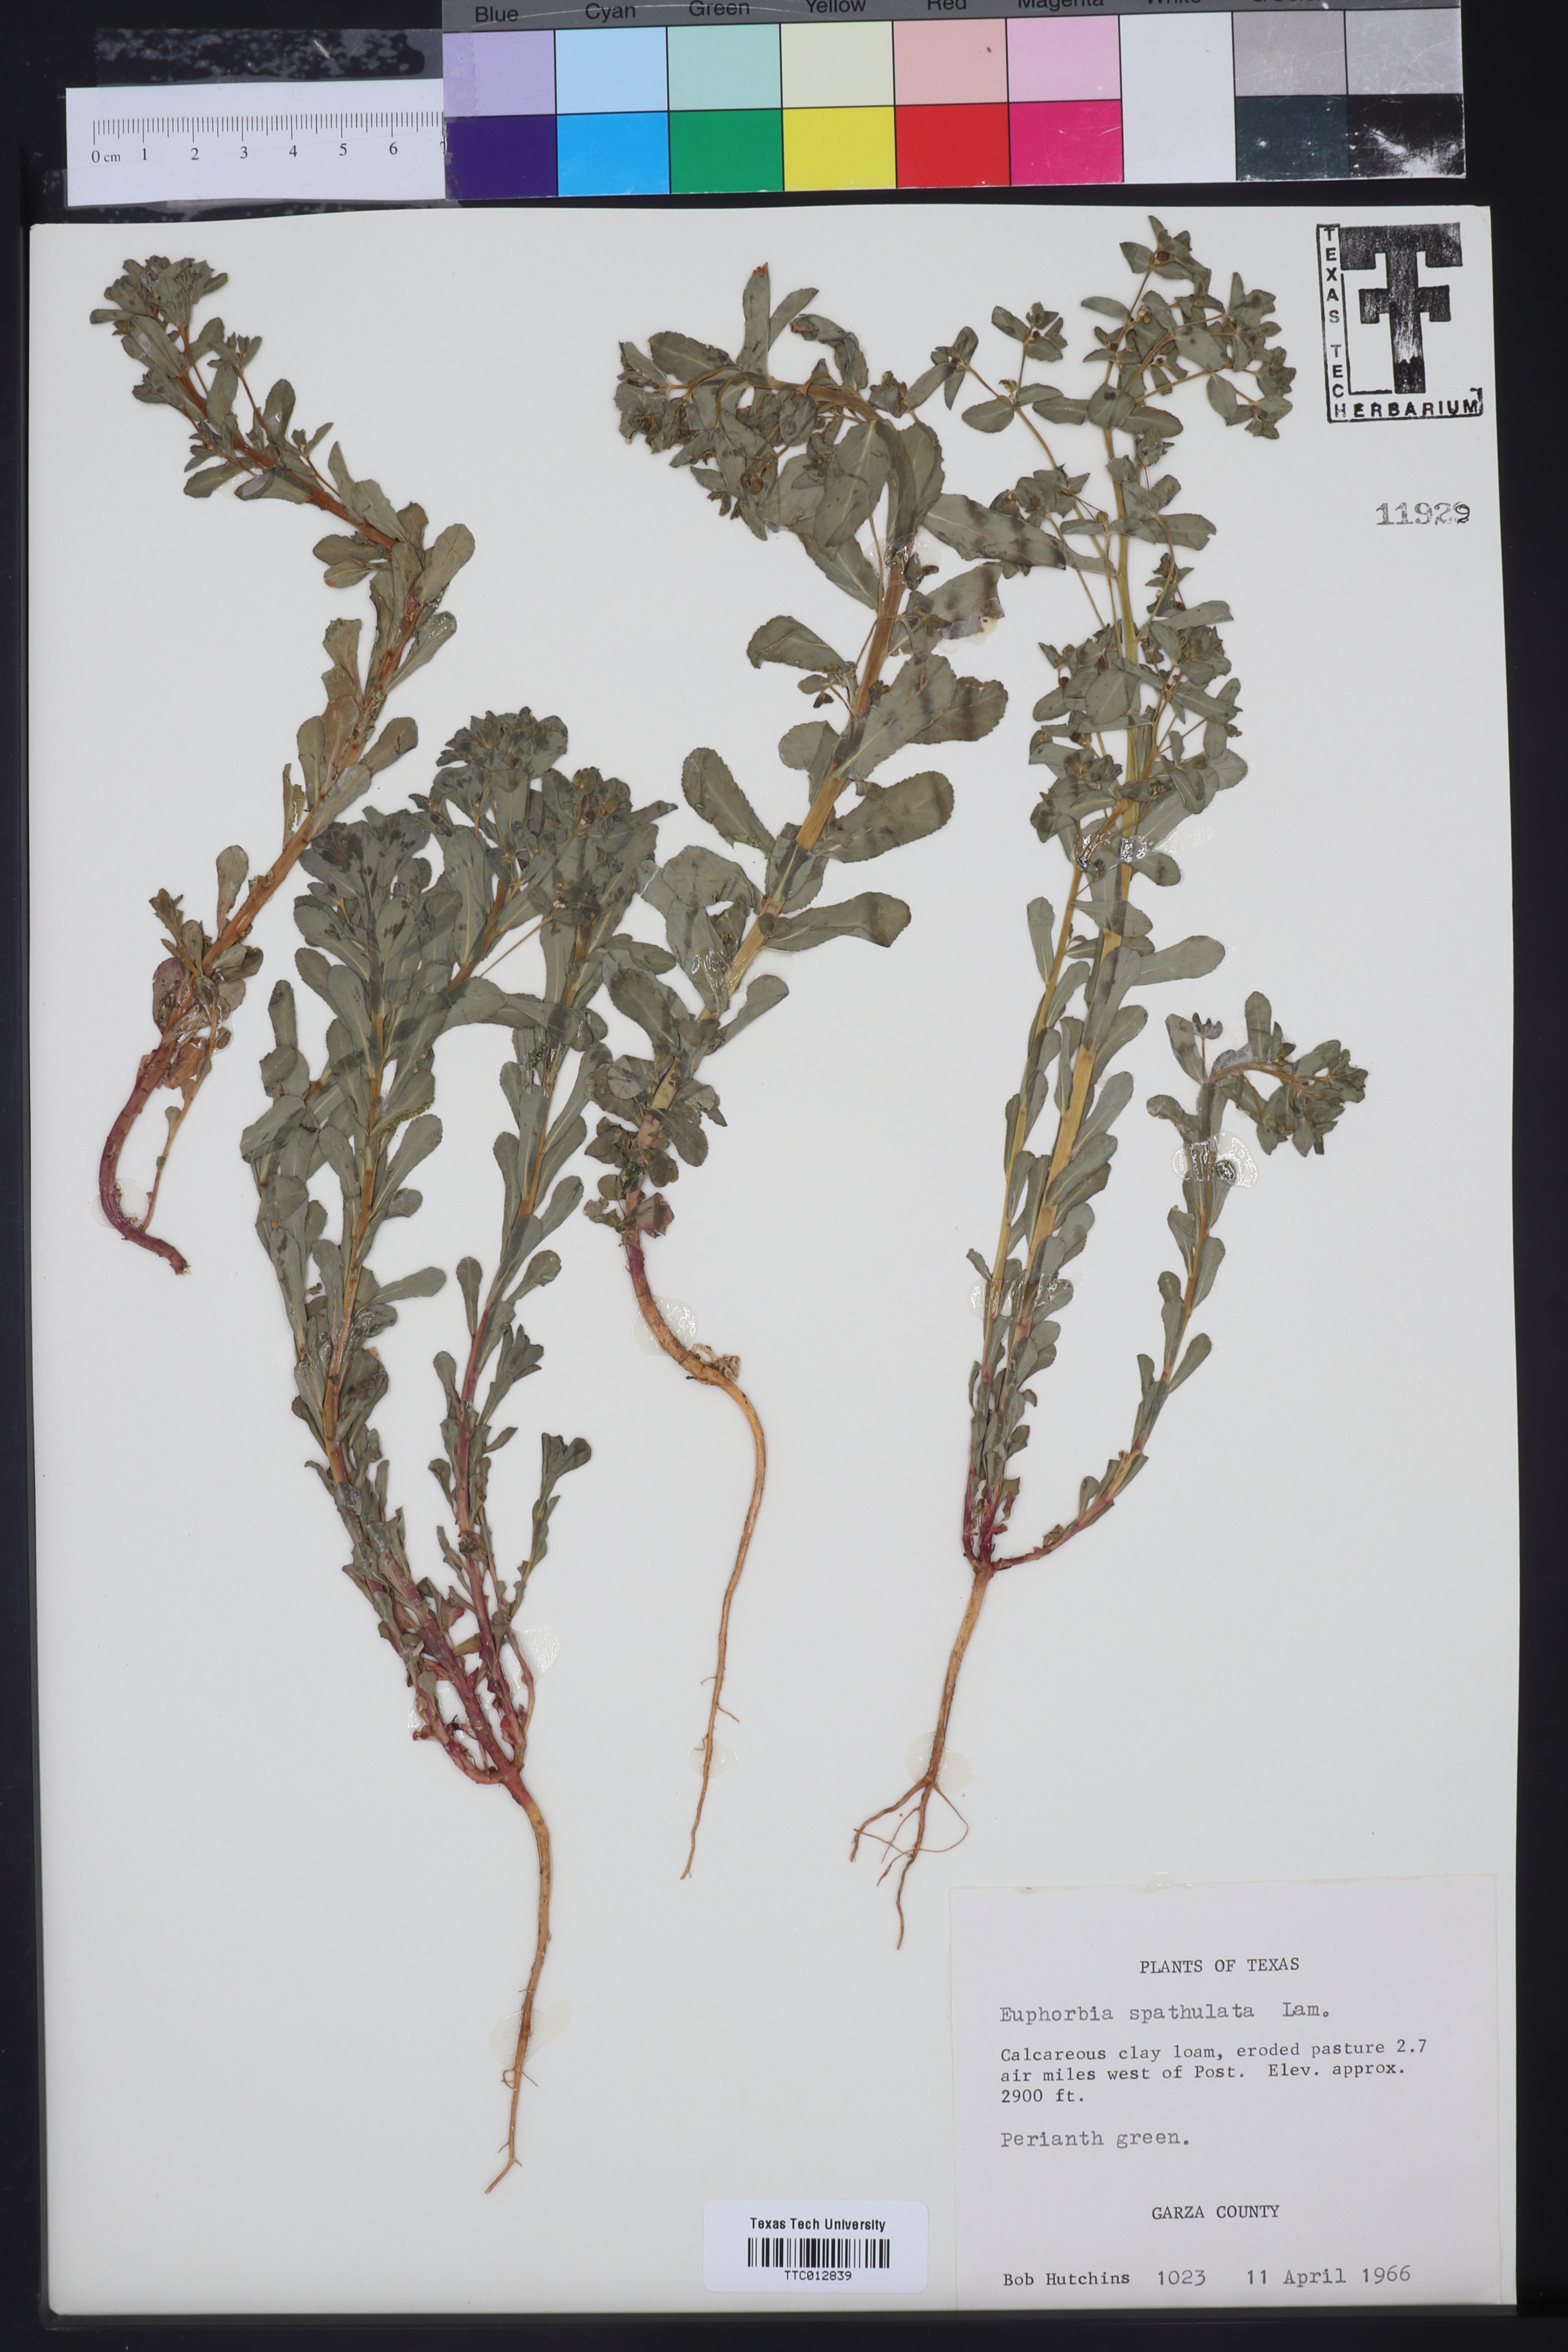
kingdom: Plantae
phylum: Tracheophyta
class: Magnoliopsida
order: Malpighiales
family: Euphorbiaceae
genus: Euphorbia
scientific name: Euphorbia spathulata
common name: Blunt spurge
